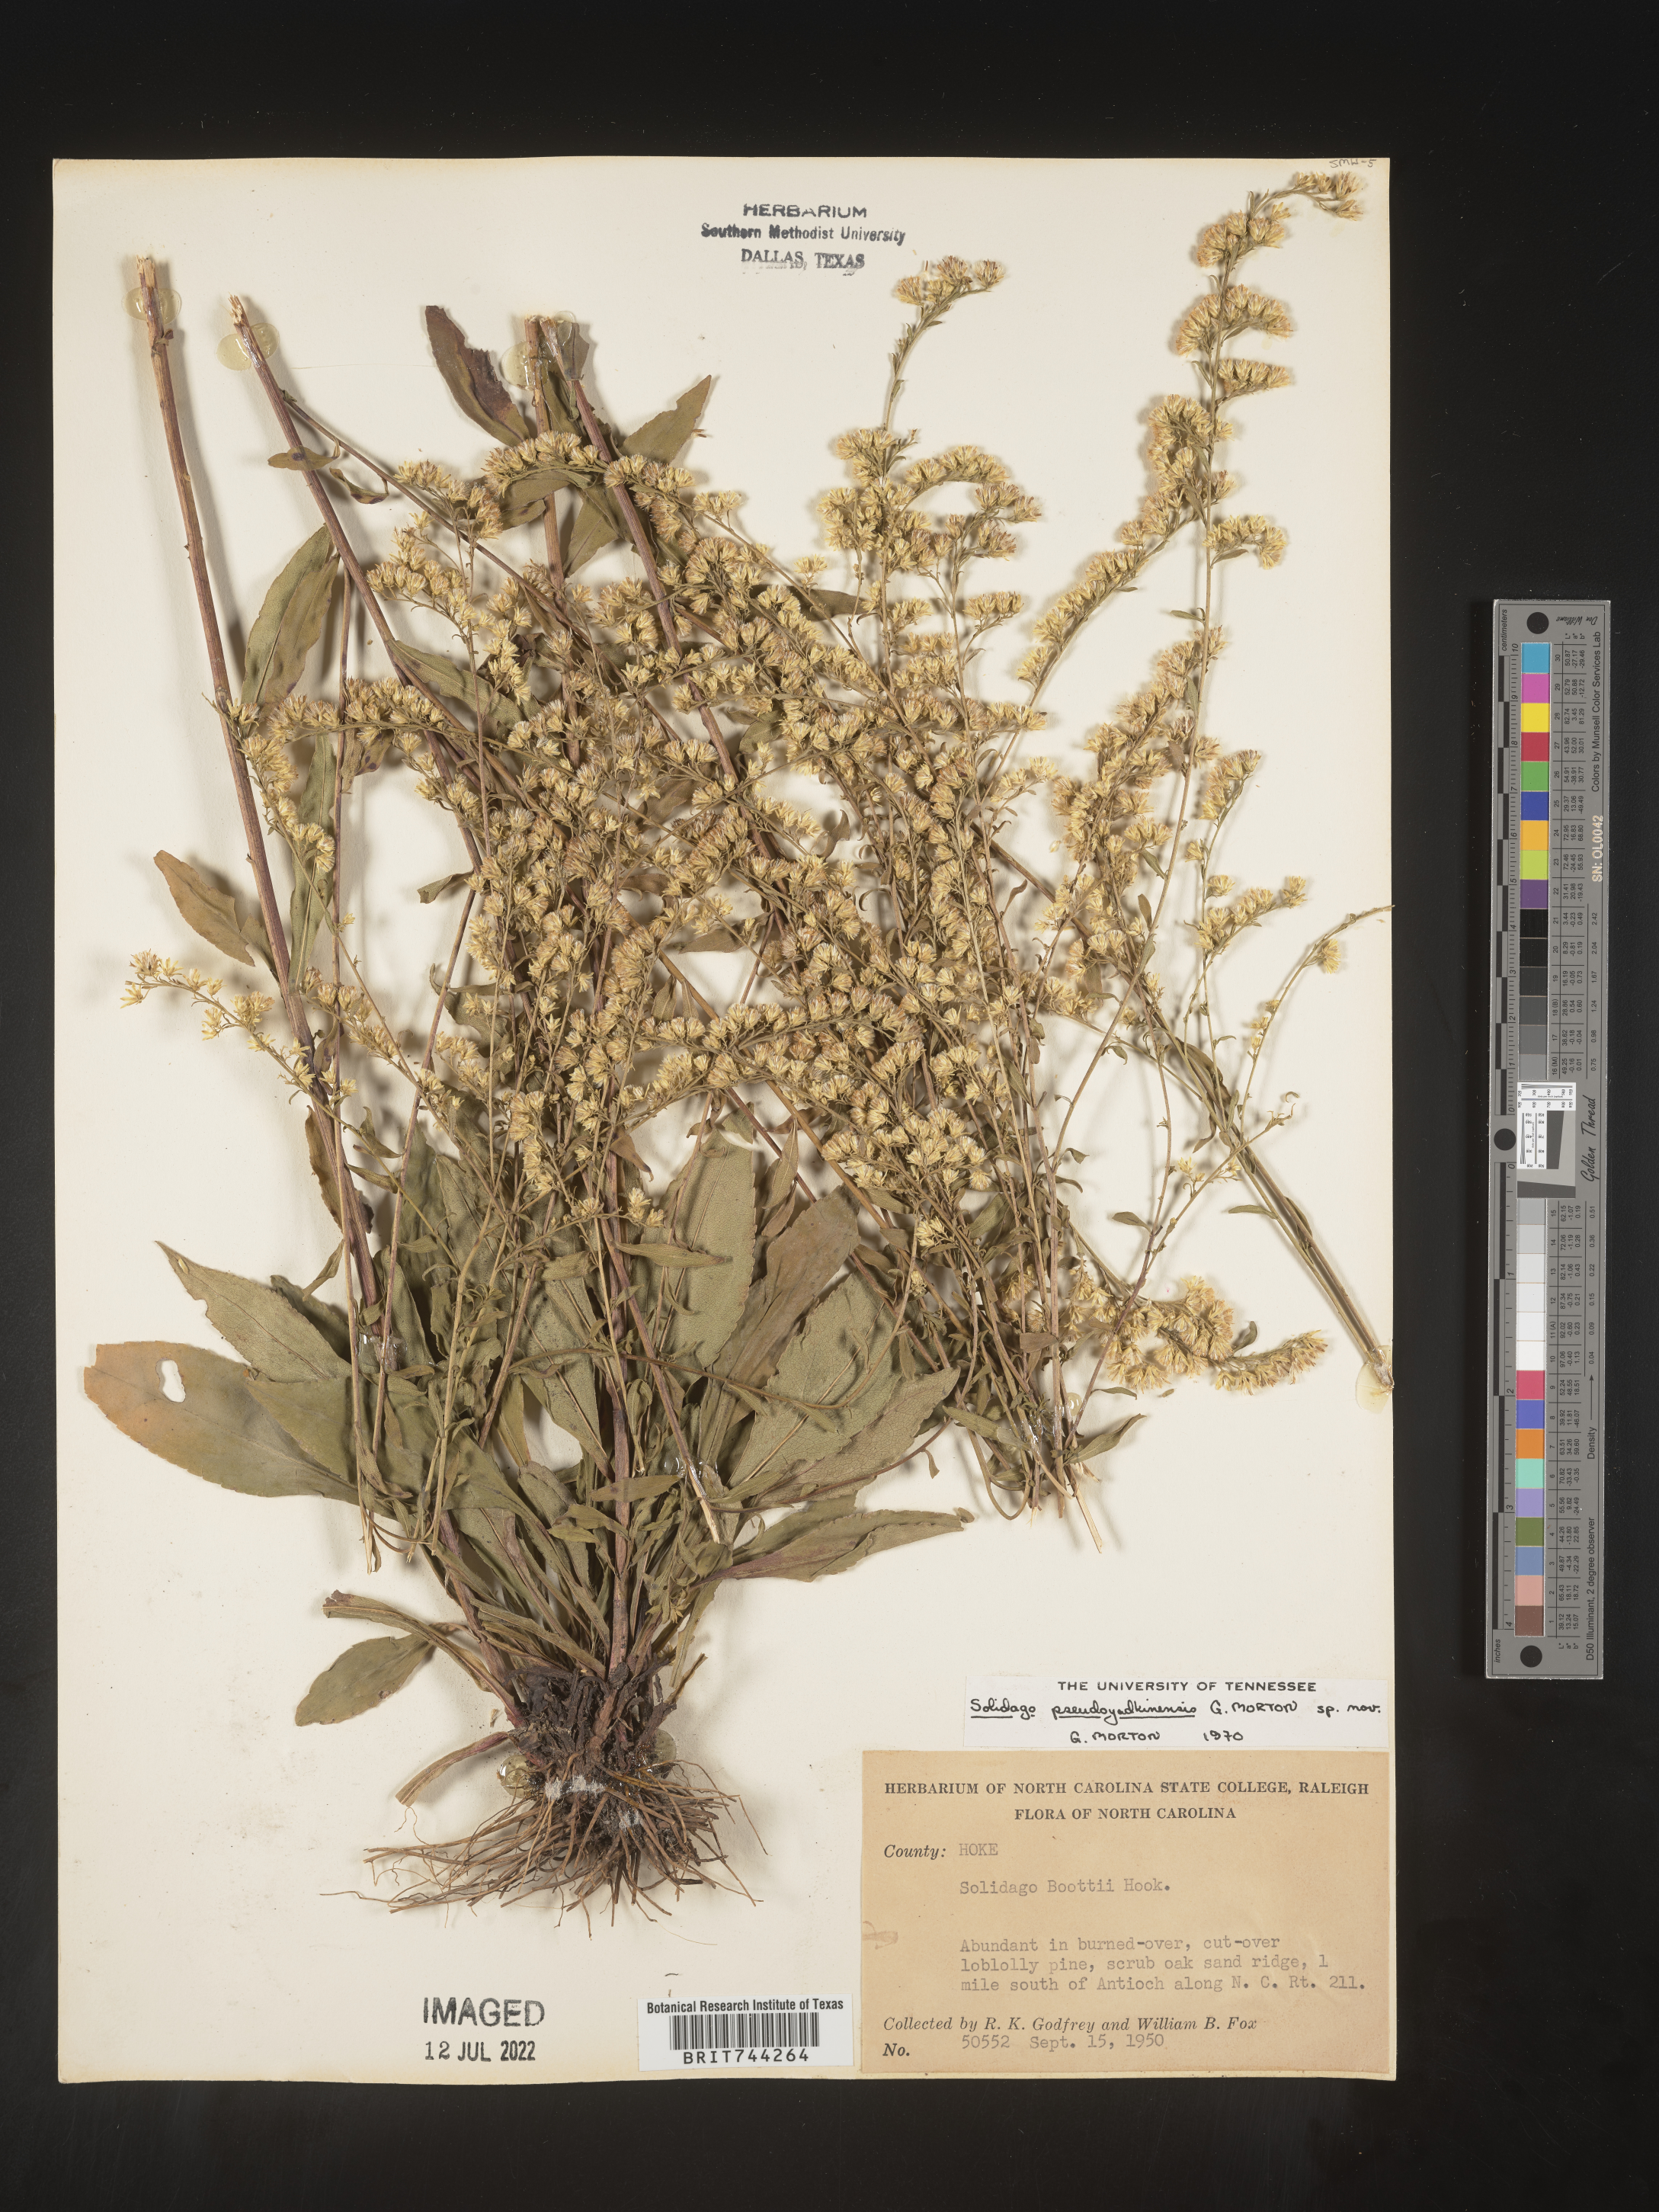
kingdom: Plantae
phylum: Tracheophyta
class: Magnoliopsida
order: Asterales
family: Asteraceae
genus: Solidago
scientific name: Solidago
